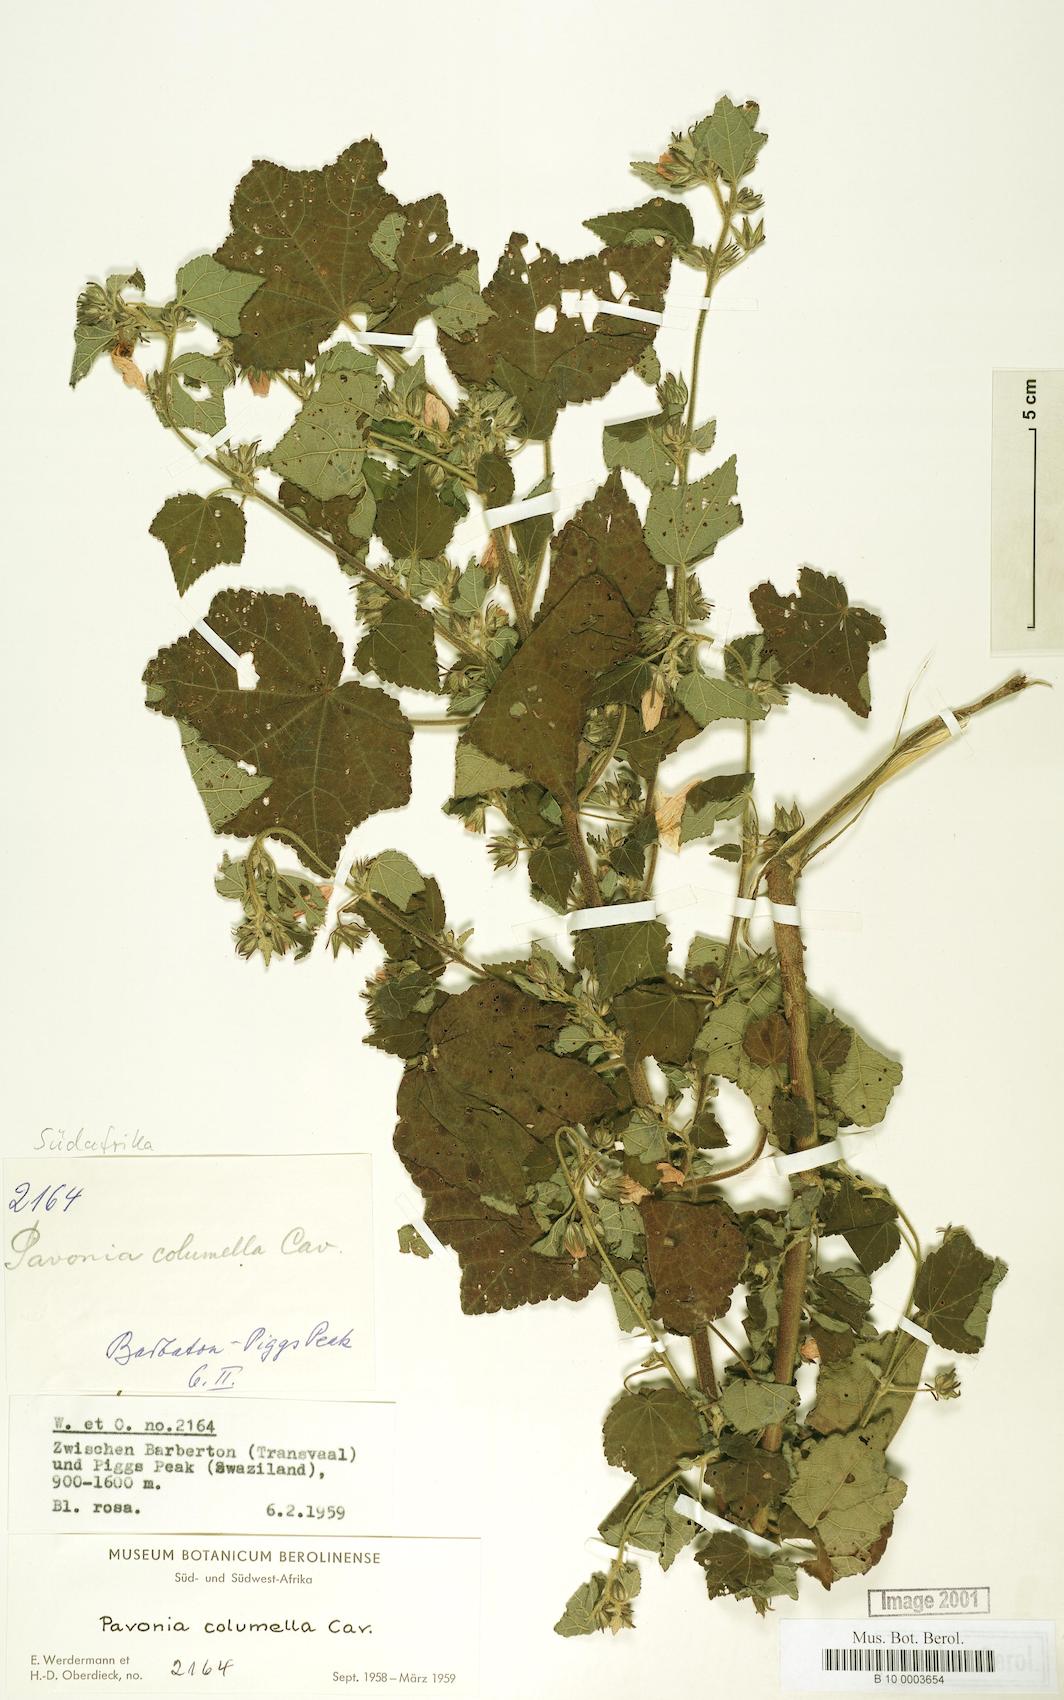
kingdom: Plantae
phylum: Tracheophyta
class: Magnoliopsida
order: Malvales
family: Malvaceae
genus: Pavonia
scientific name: Pavonia columella
